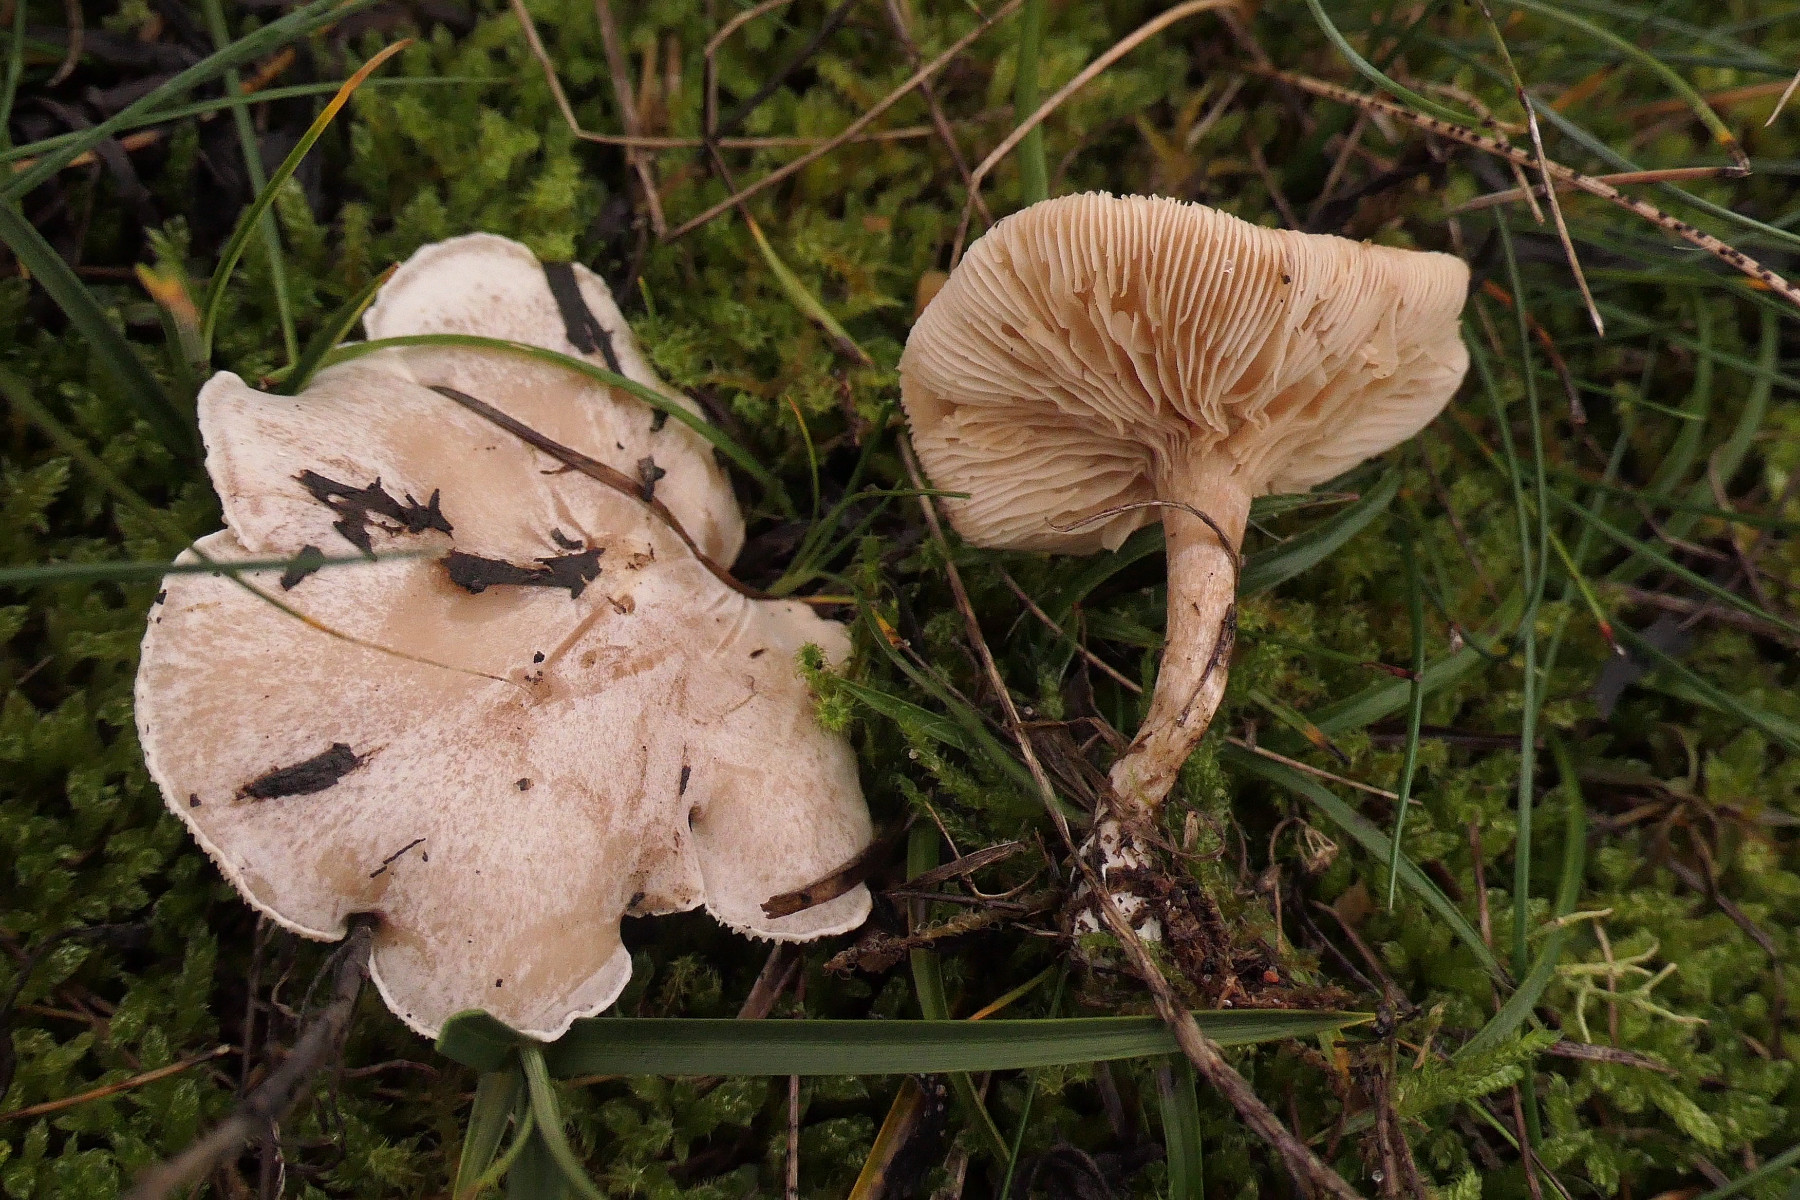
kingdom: Fungi
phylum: Basidiomycota
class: Agaricomycetes
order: Agaricales
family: Tricholomataceae
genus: Clitocybe
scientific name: Clitocybe rivulosa
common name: eng-tragthat
